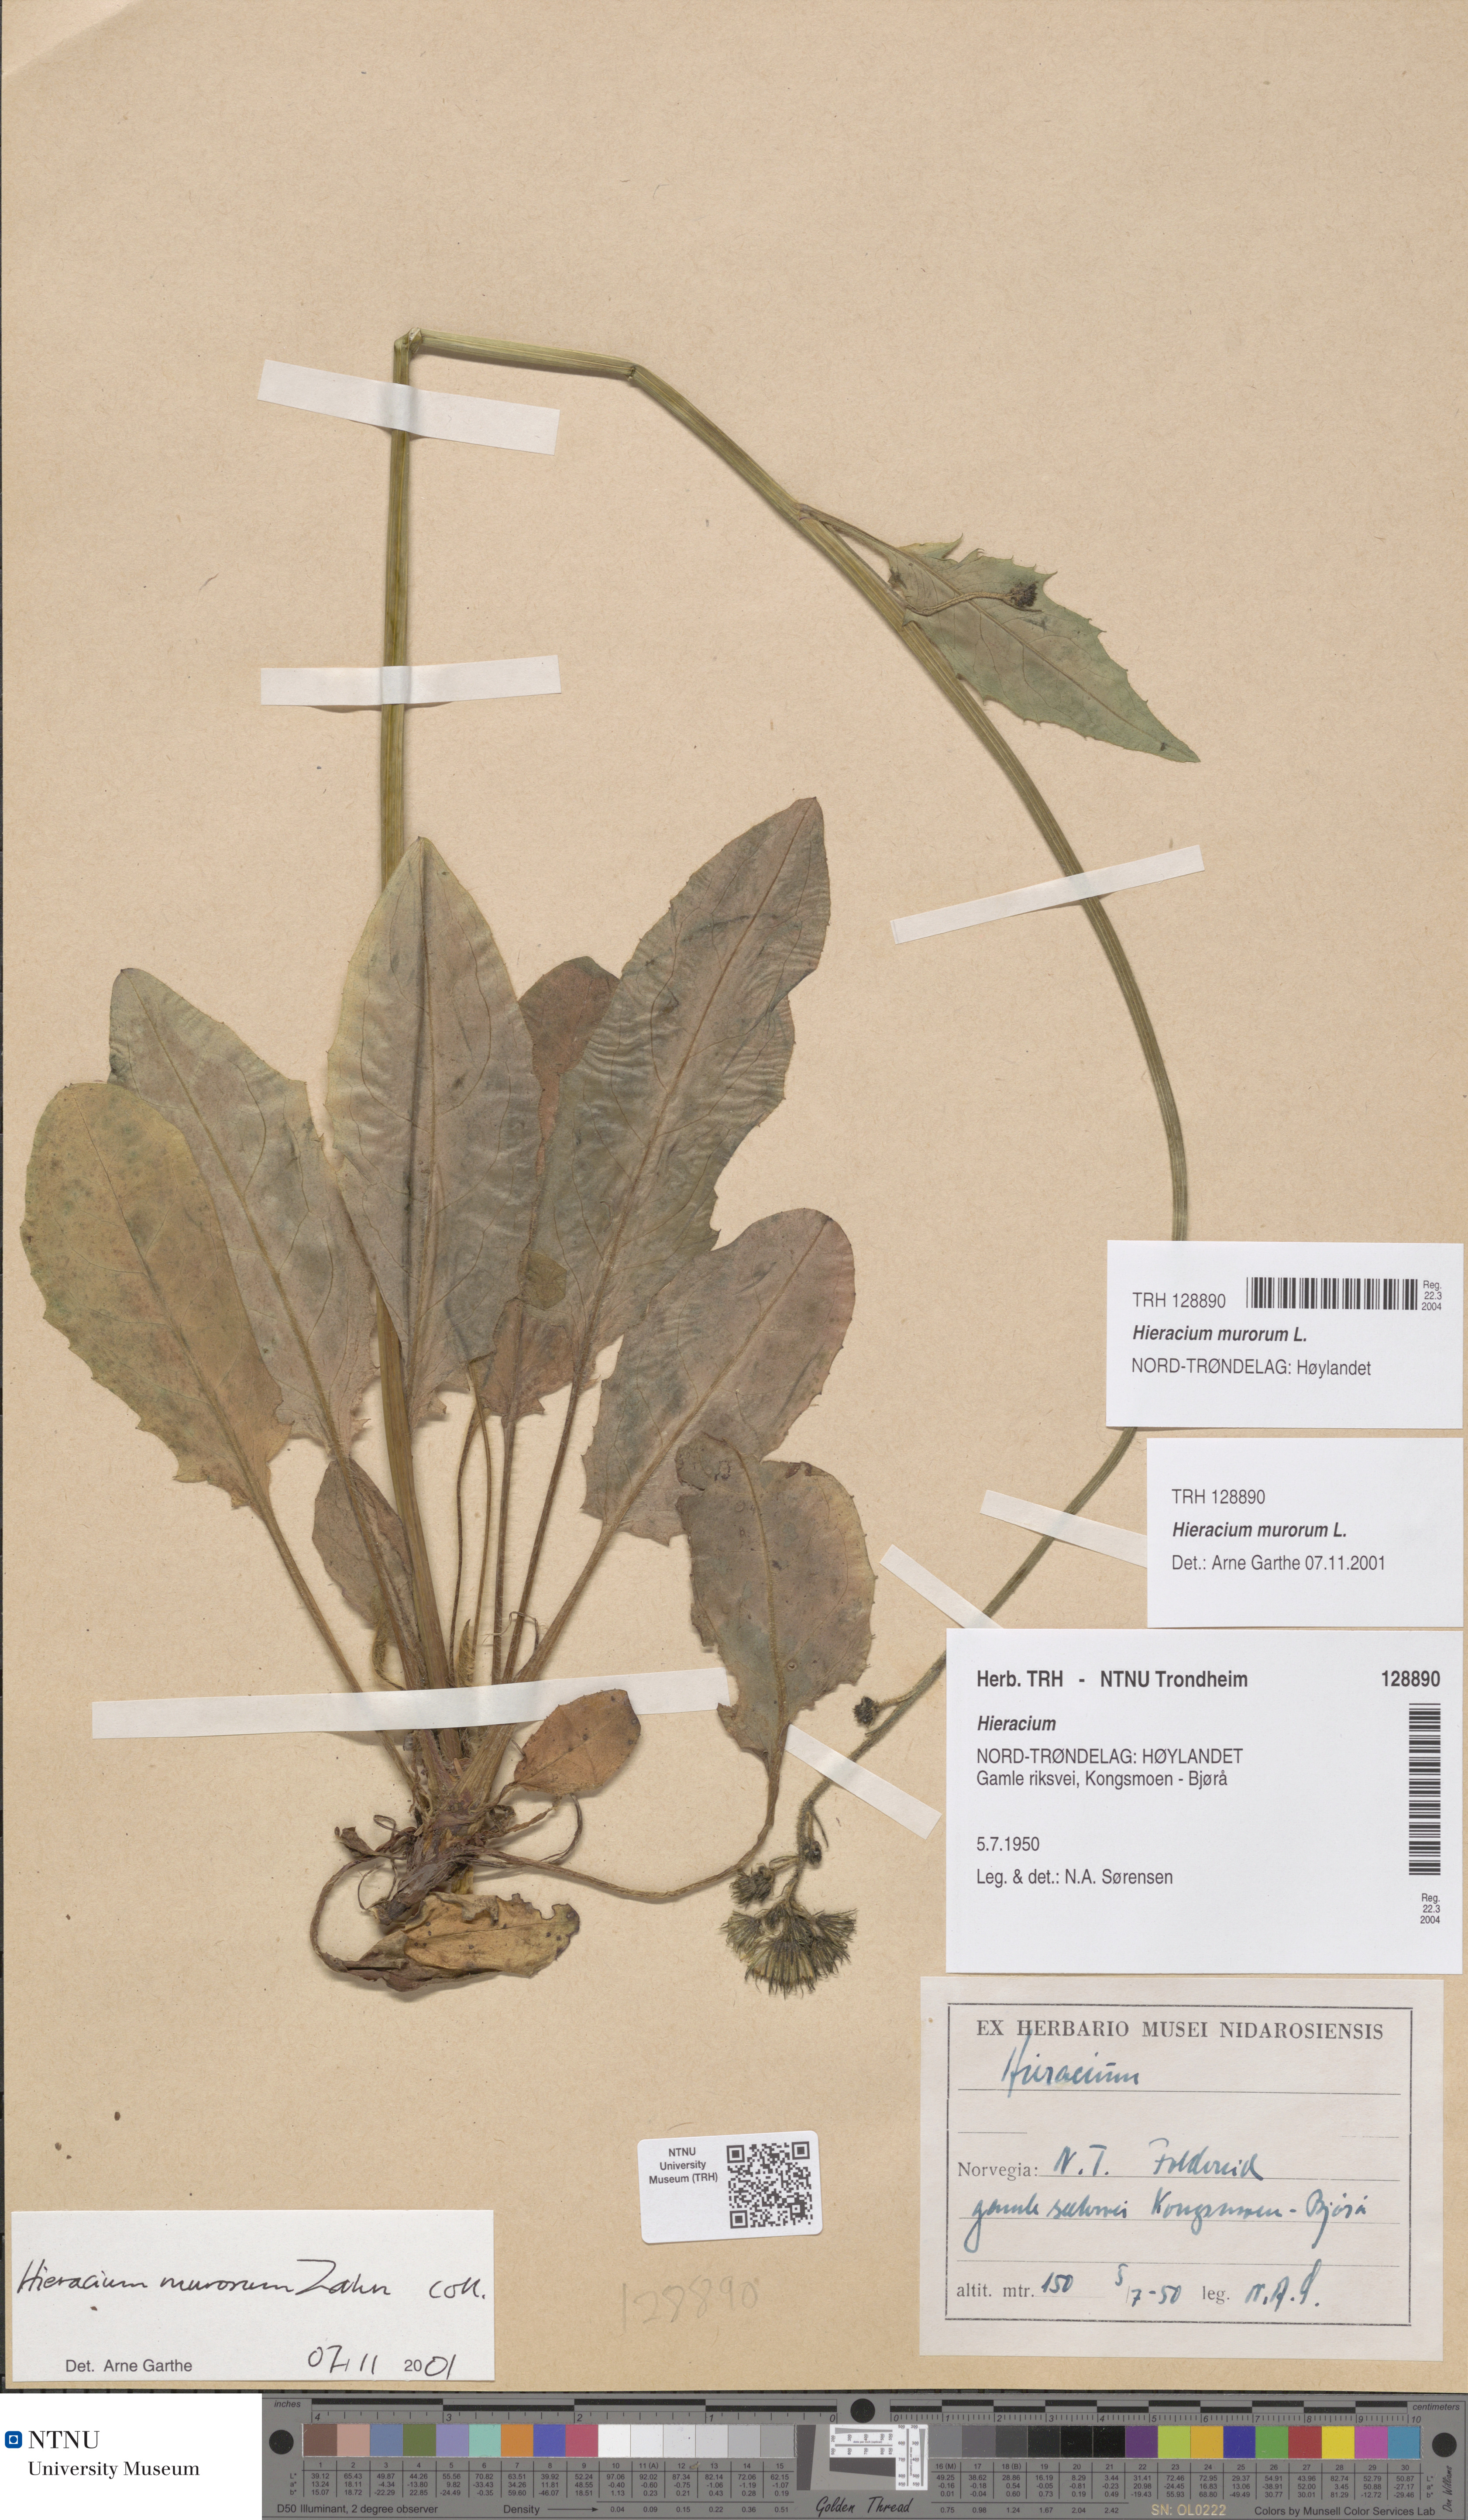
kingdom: Plantae
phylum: Tracheophyta
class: Magnoliopsida
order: Asterales
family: Asteraceae
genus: Hieracium
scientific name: Hieracium murorum
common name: Wall hawkweed
